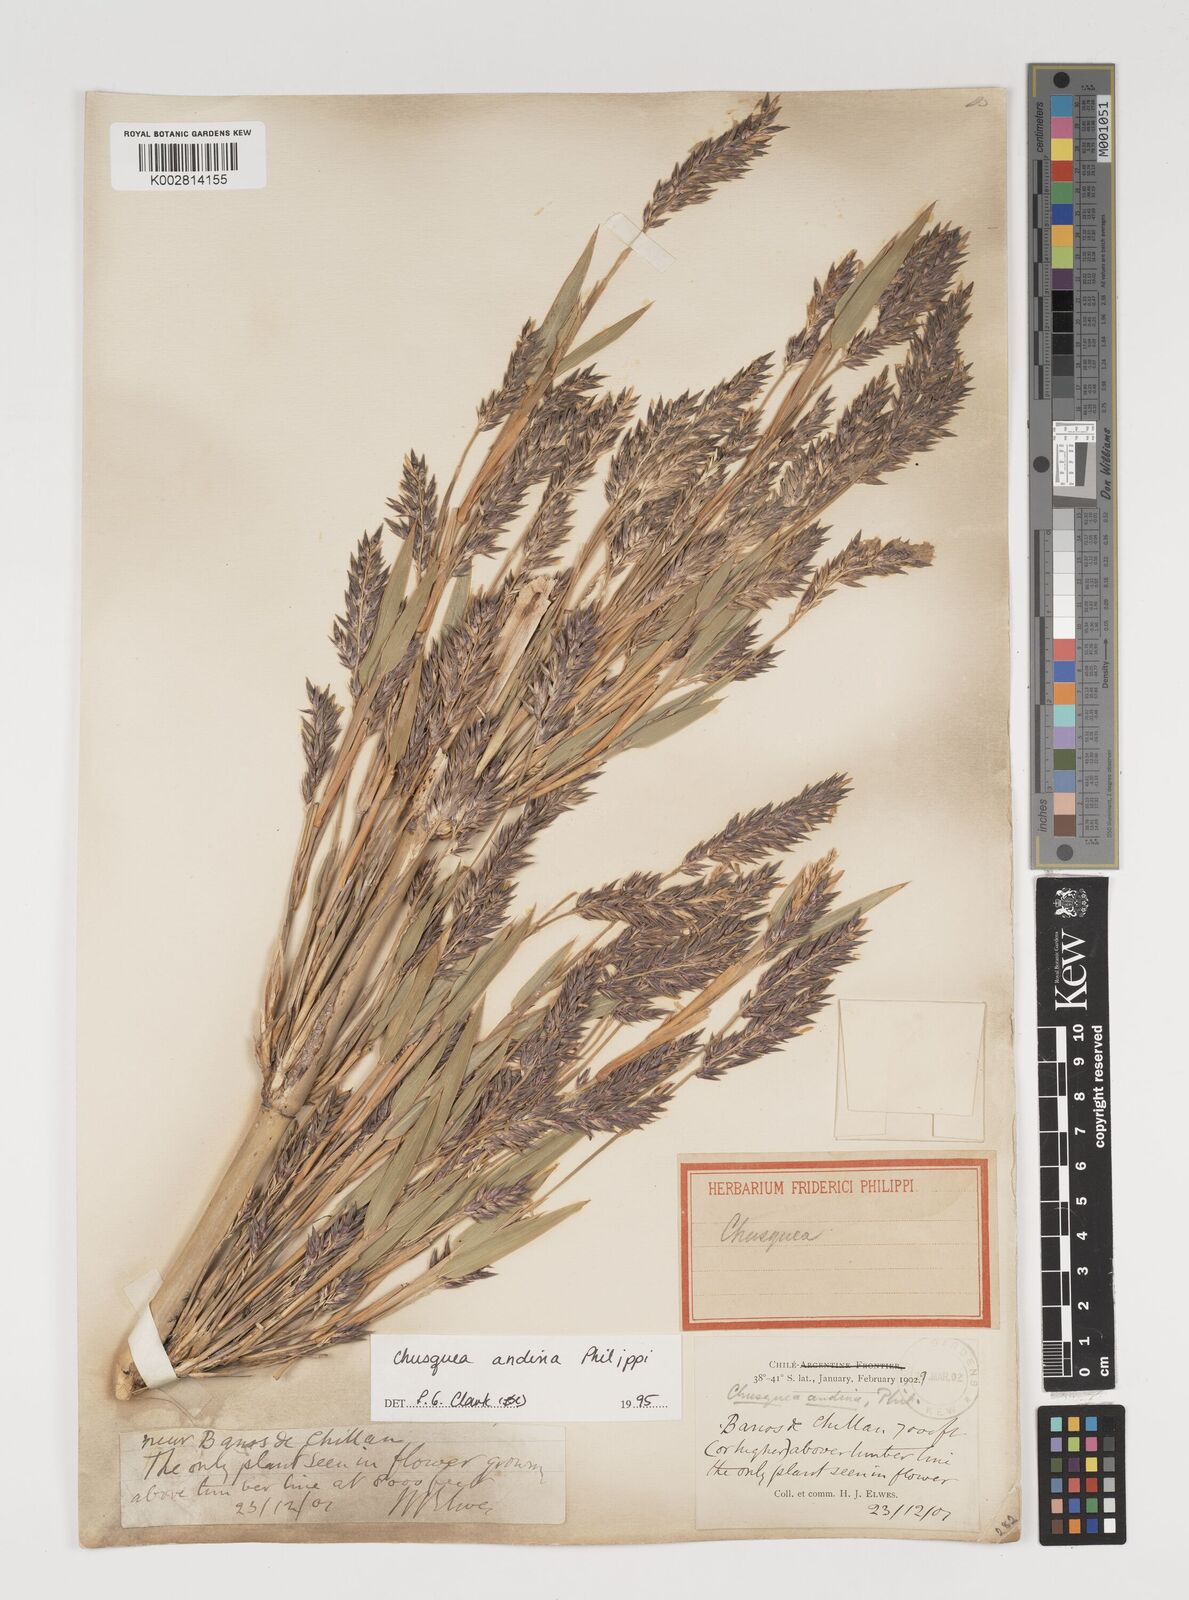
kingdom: Plantae
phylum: Tracheophyta
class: Liliopsida
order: Poales
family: Poaceae
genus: Chusquea
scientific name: Chusquea andina
